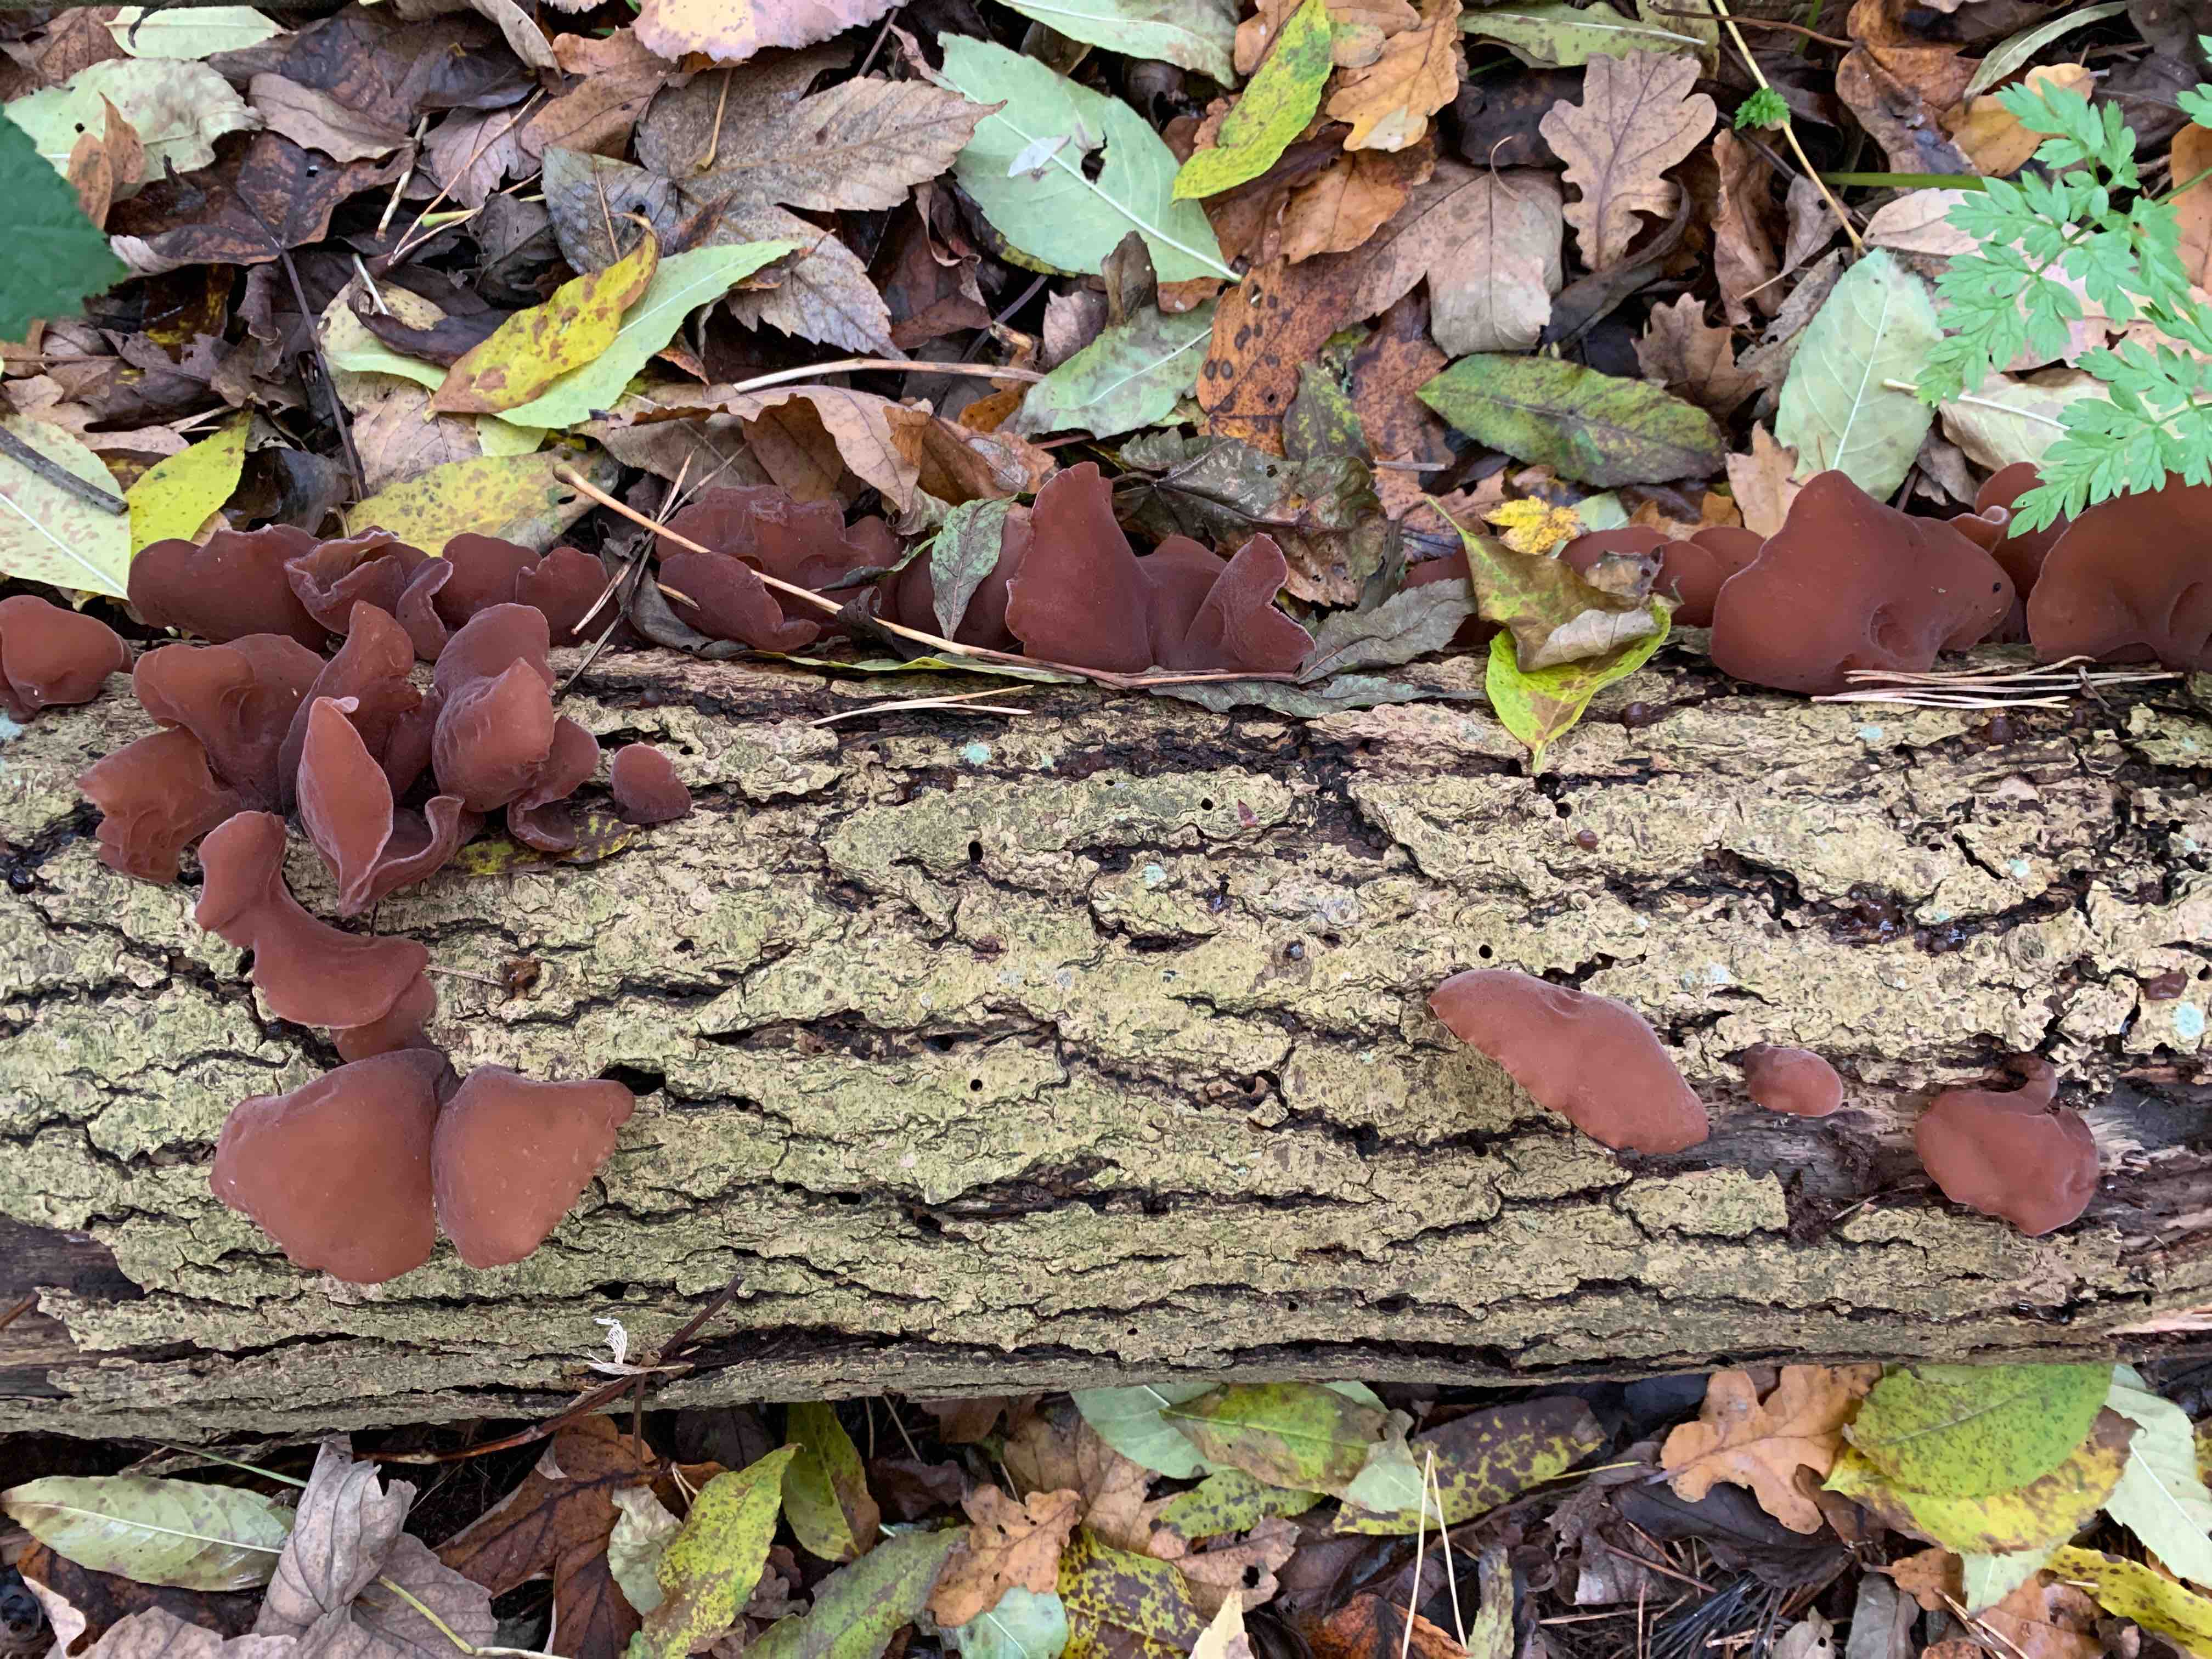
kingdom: Fungi
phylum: Basidiomycota
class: Agaricomycetes
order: Auriculariales
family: Auriculariaceae
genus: Auricularia
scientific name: Auricularia auricula-judae
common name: almindelig judasøre
